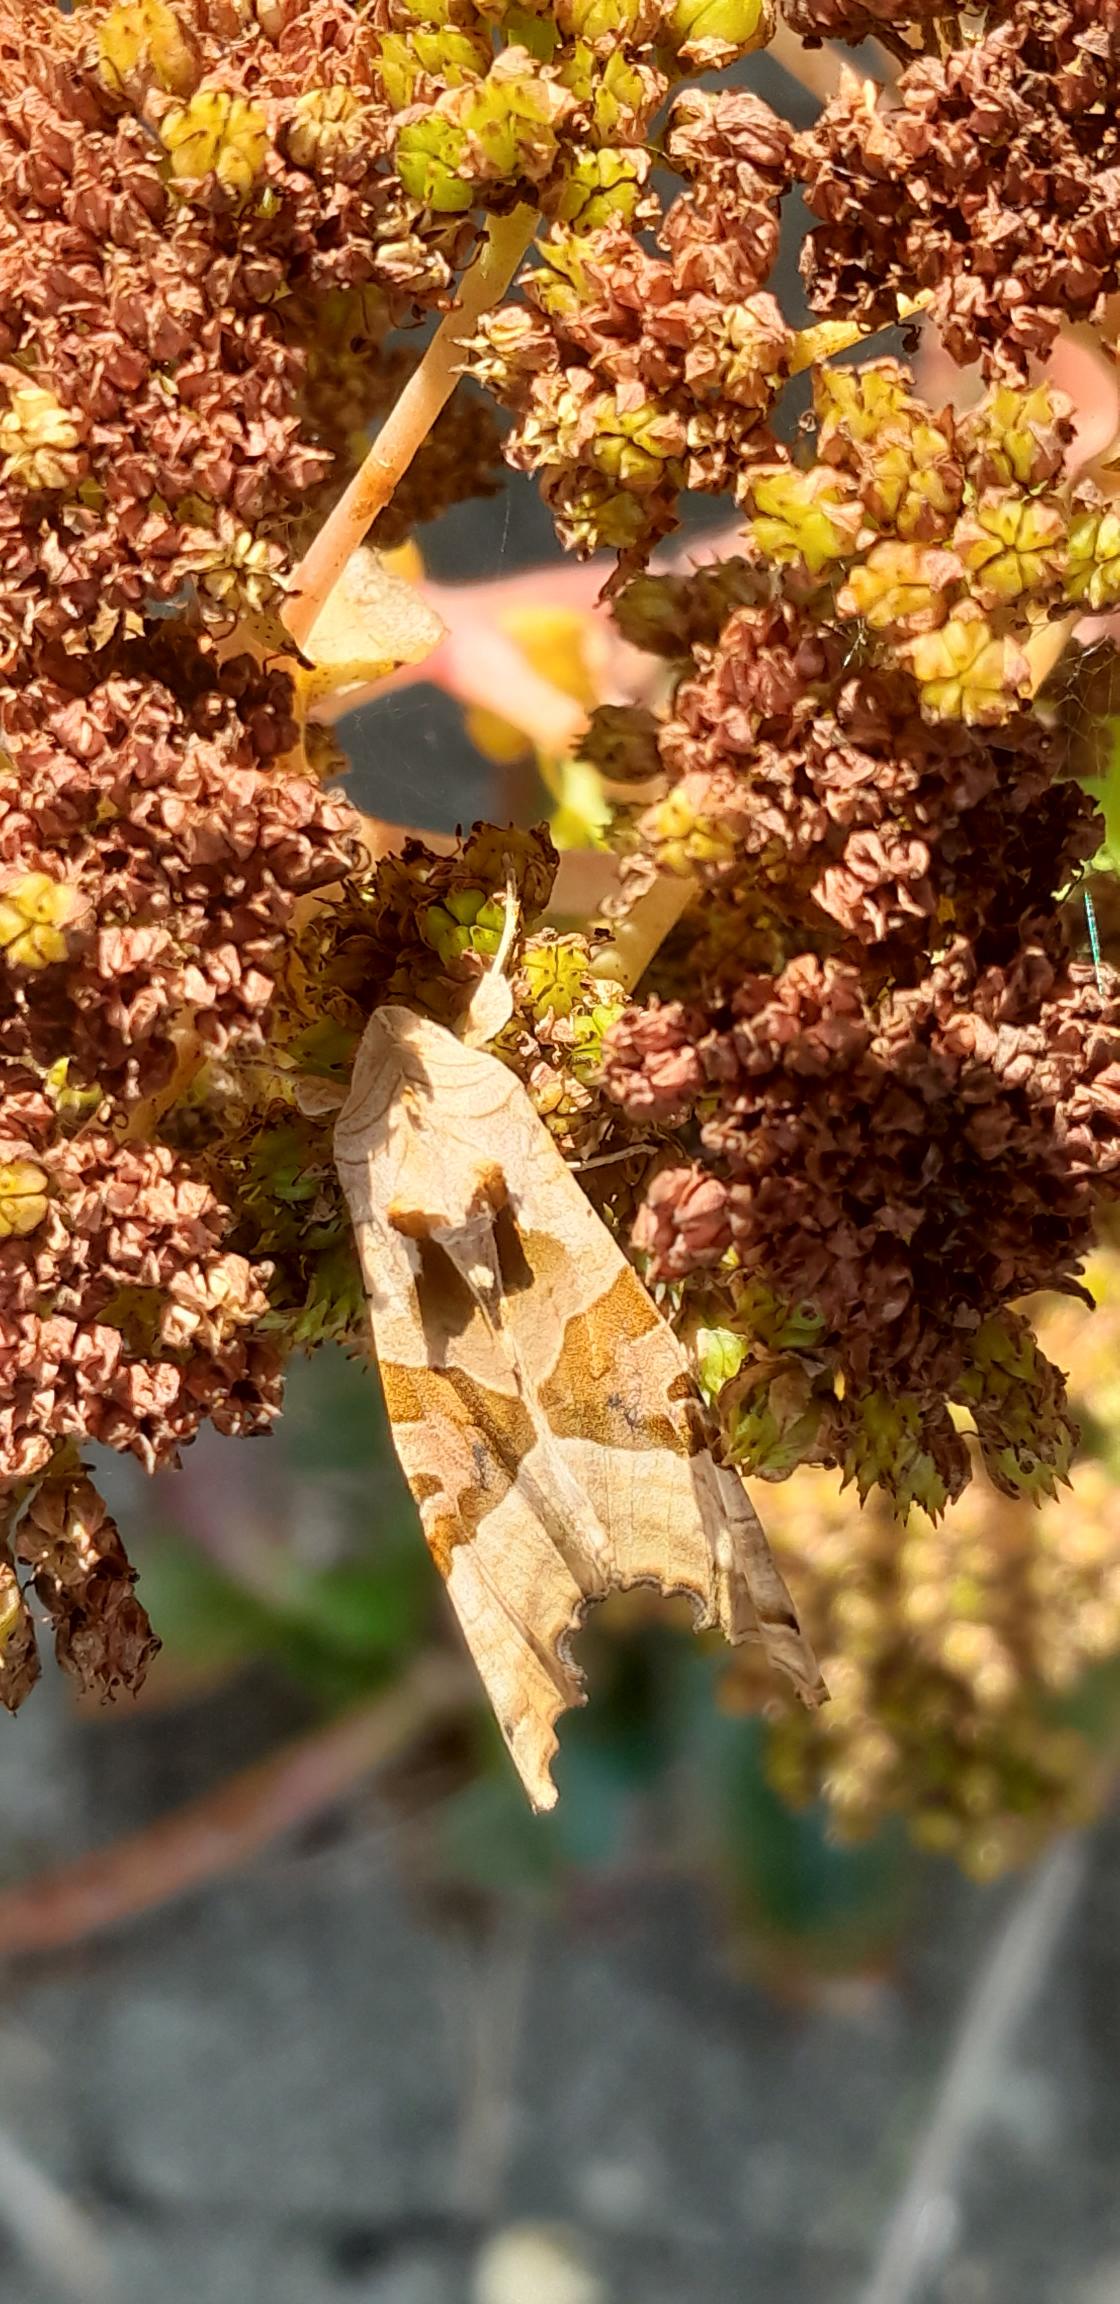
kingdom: Animalia
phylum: Arthropoda
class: Insecta
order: Lepidoptera
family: Noctuidae
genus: Phlogophora
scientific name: Phlogophora meticulosa
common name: Agatugle
